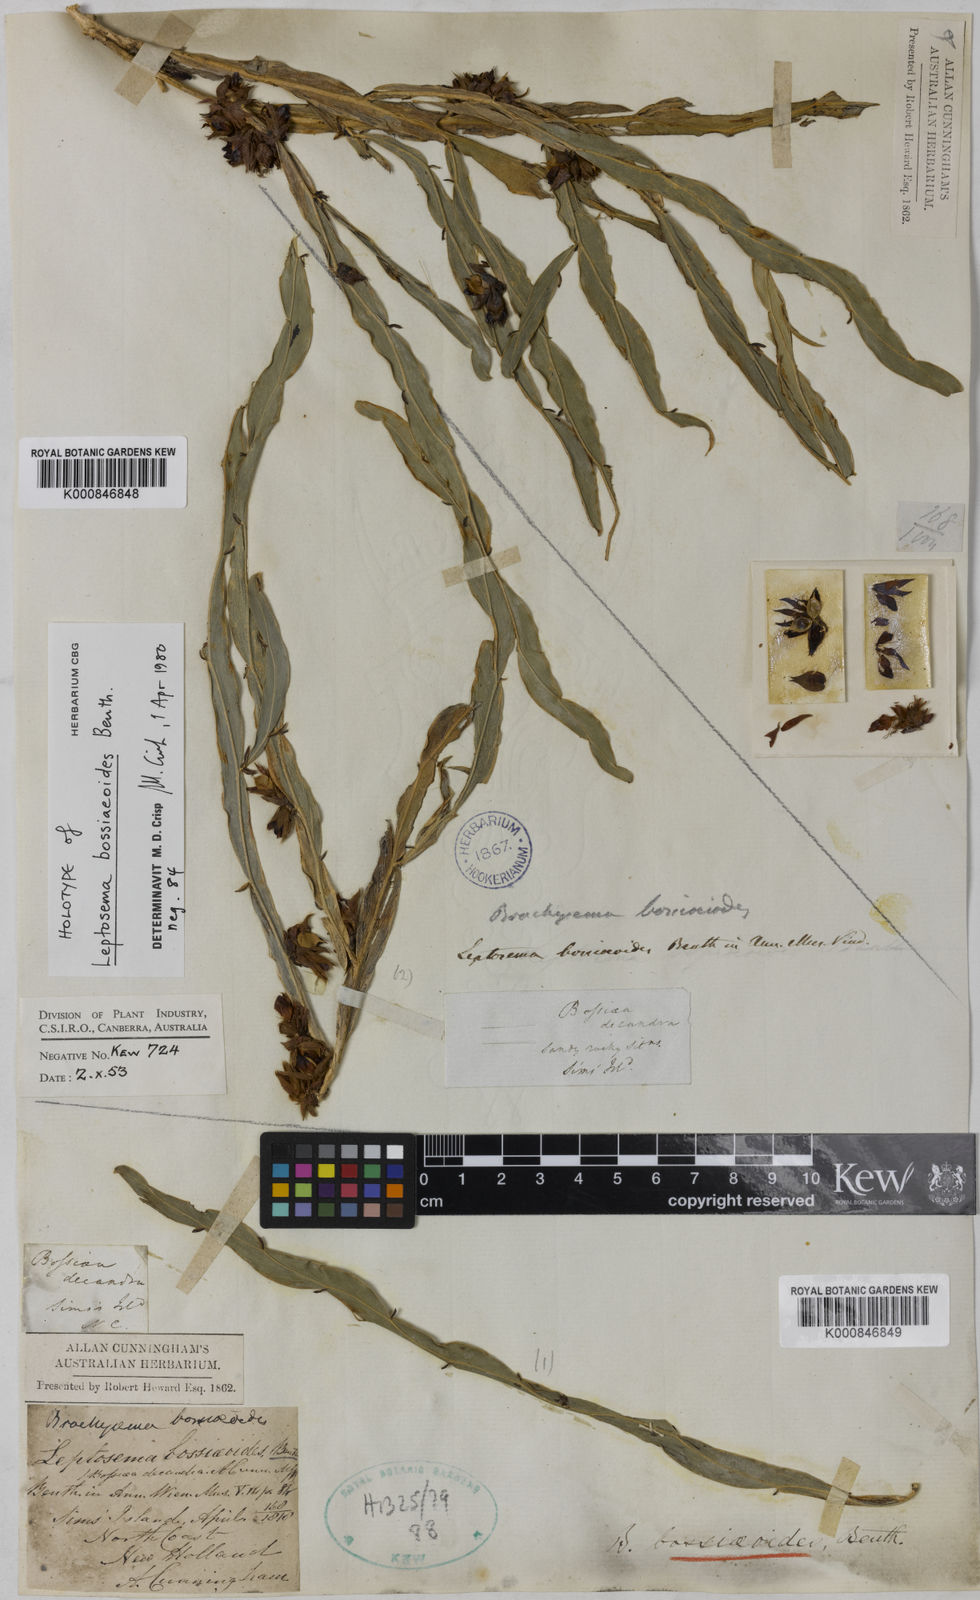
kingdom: Plantae
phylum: Tracheophyta
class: Magnoliopsida
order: Fabales
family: Fabaceae
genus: Leptosema
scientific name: Leptosema bossiaeoides
